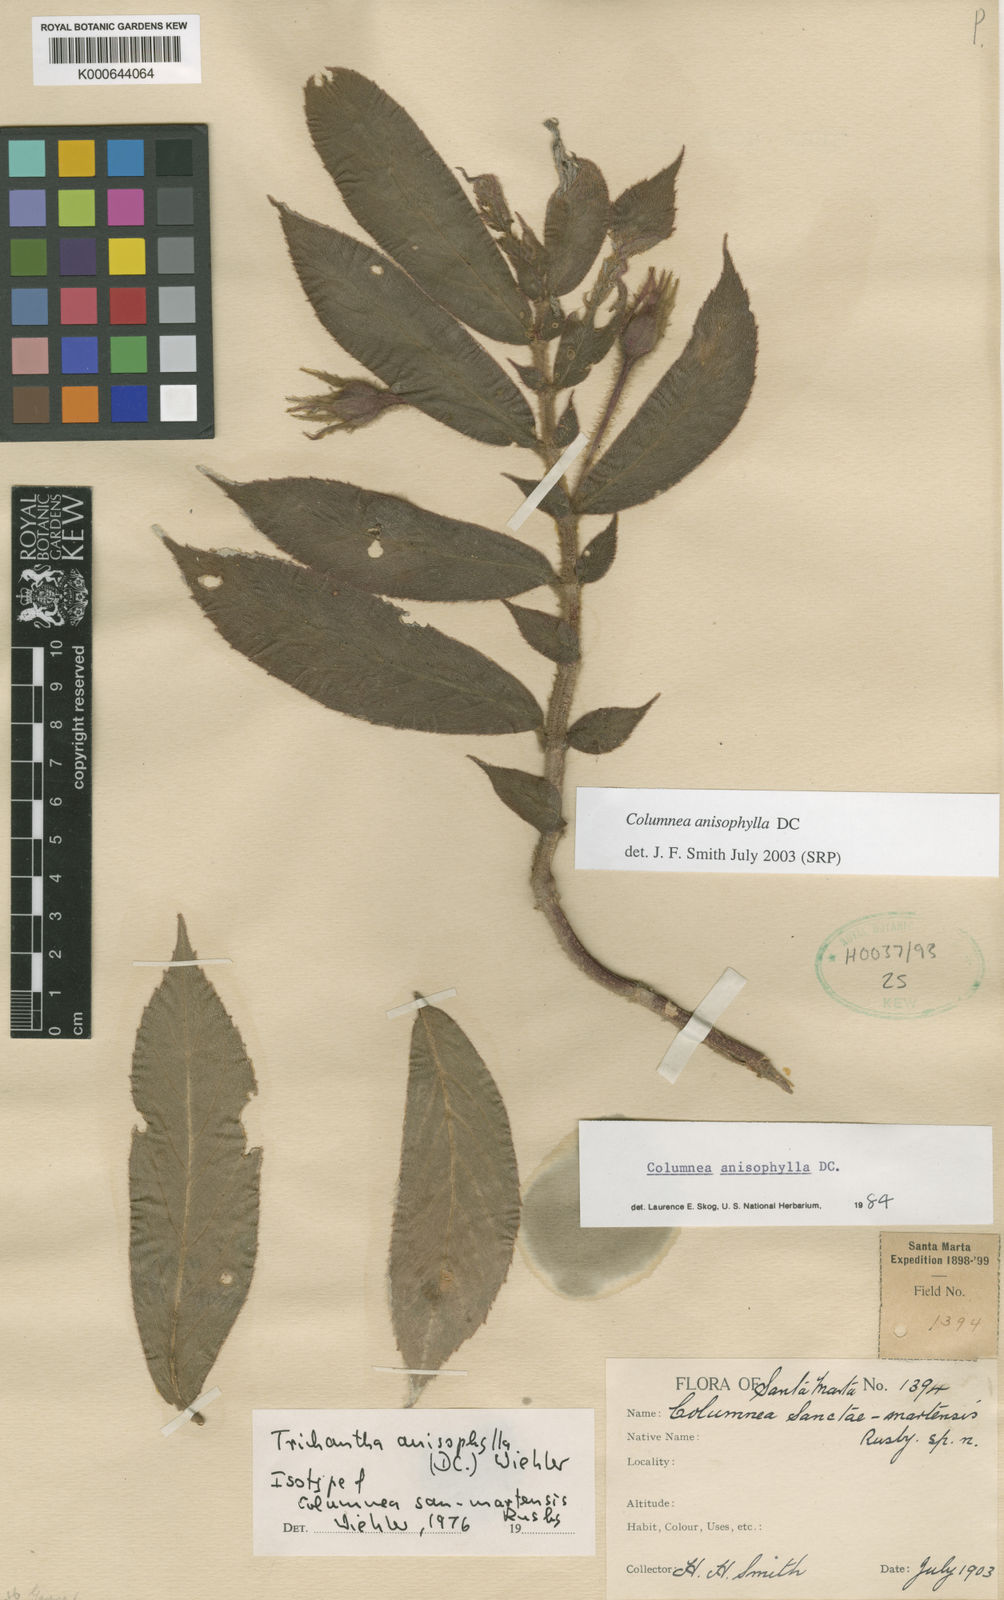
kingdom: Plantae
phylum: Tracheophyta
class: Magnoliopsida
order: Lamiales
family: Gesneriaceae
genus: Columnea
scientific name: Columnea anisophylla
